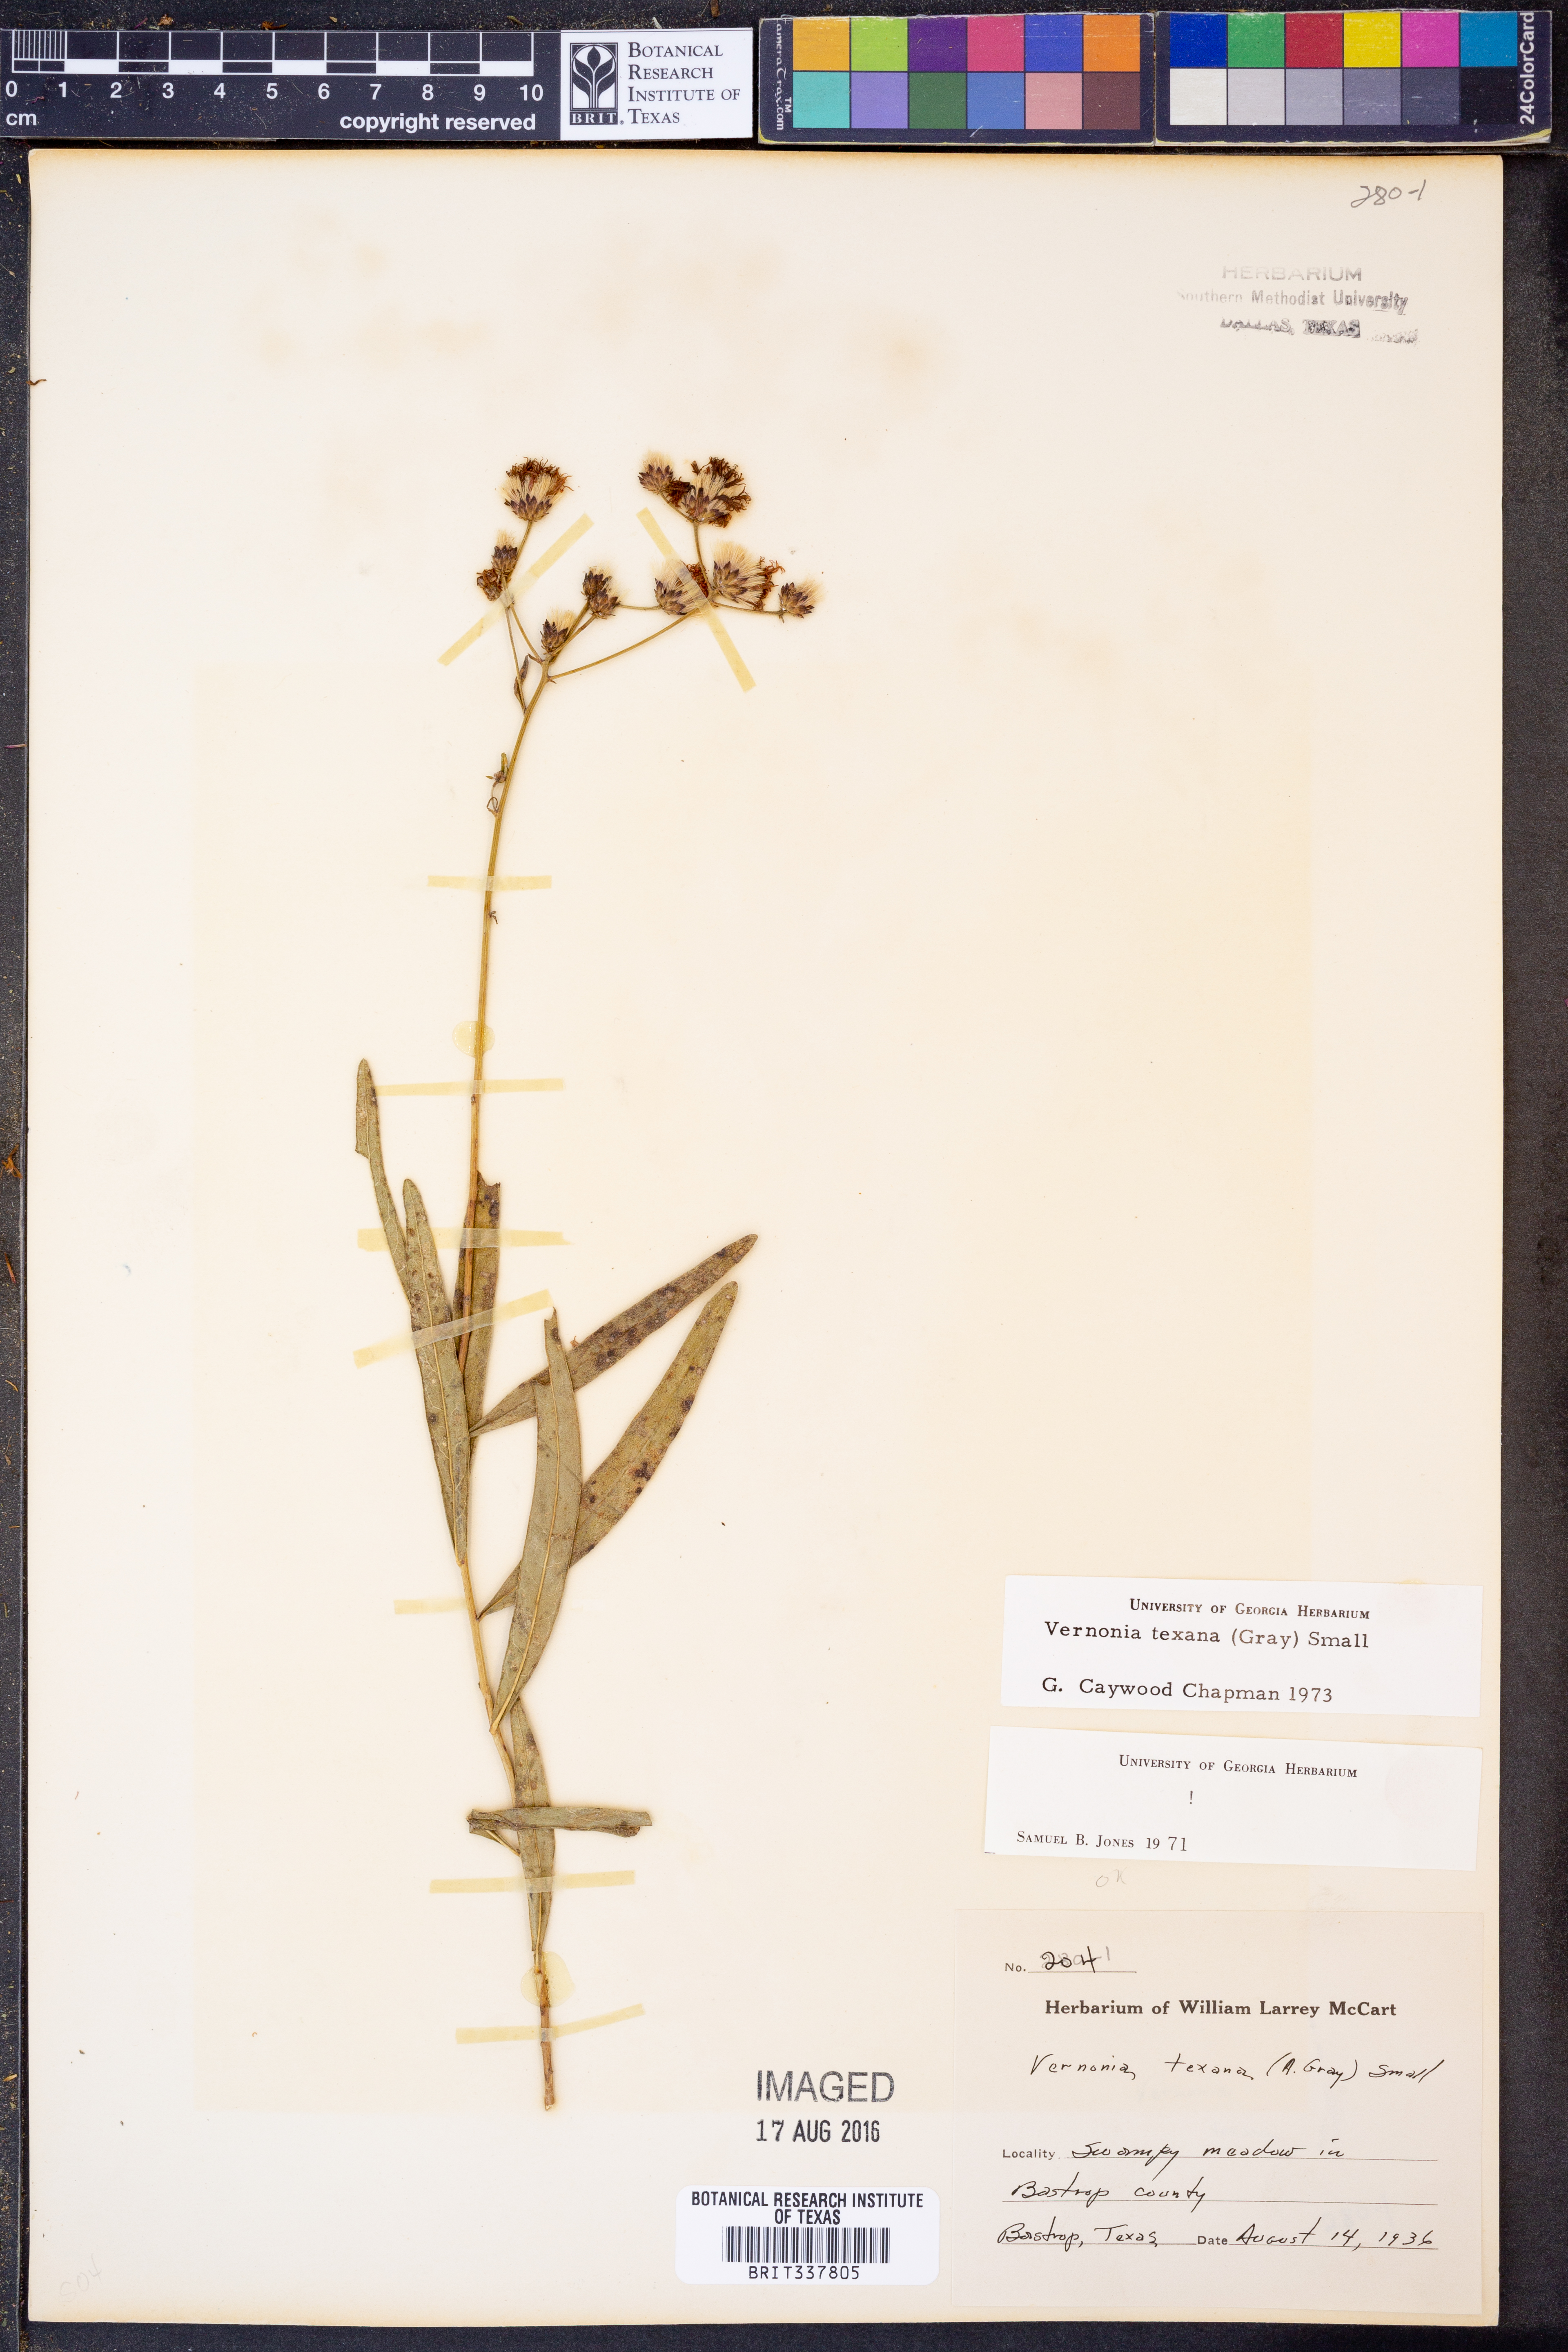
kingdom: Plantae
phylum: Tracheophyta
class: Magnoliopsida
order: Asterales
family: Asteraceae
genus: Vernonia
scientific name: Vernonia texana
